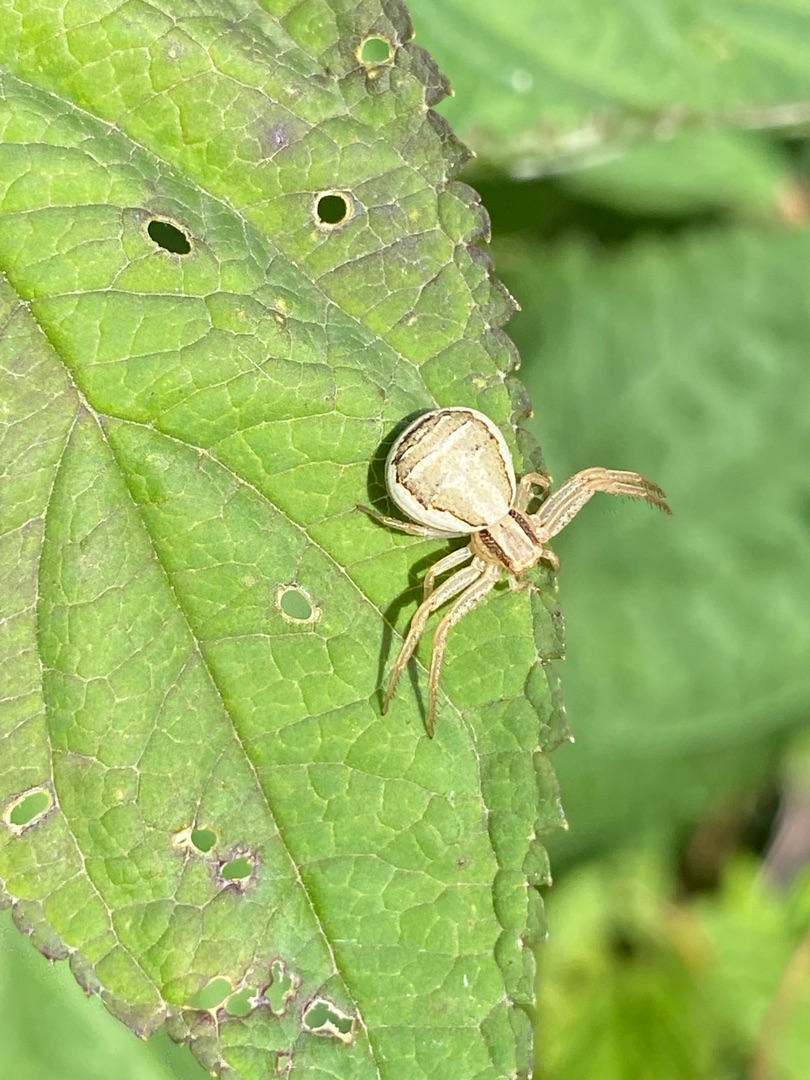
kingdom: Animalia
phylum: Arthropoda
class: Arachnida
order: Araneae
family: Thomisidae
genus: Xysticus
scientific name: Xysticus ulmi
